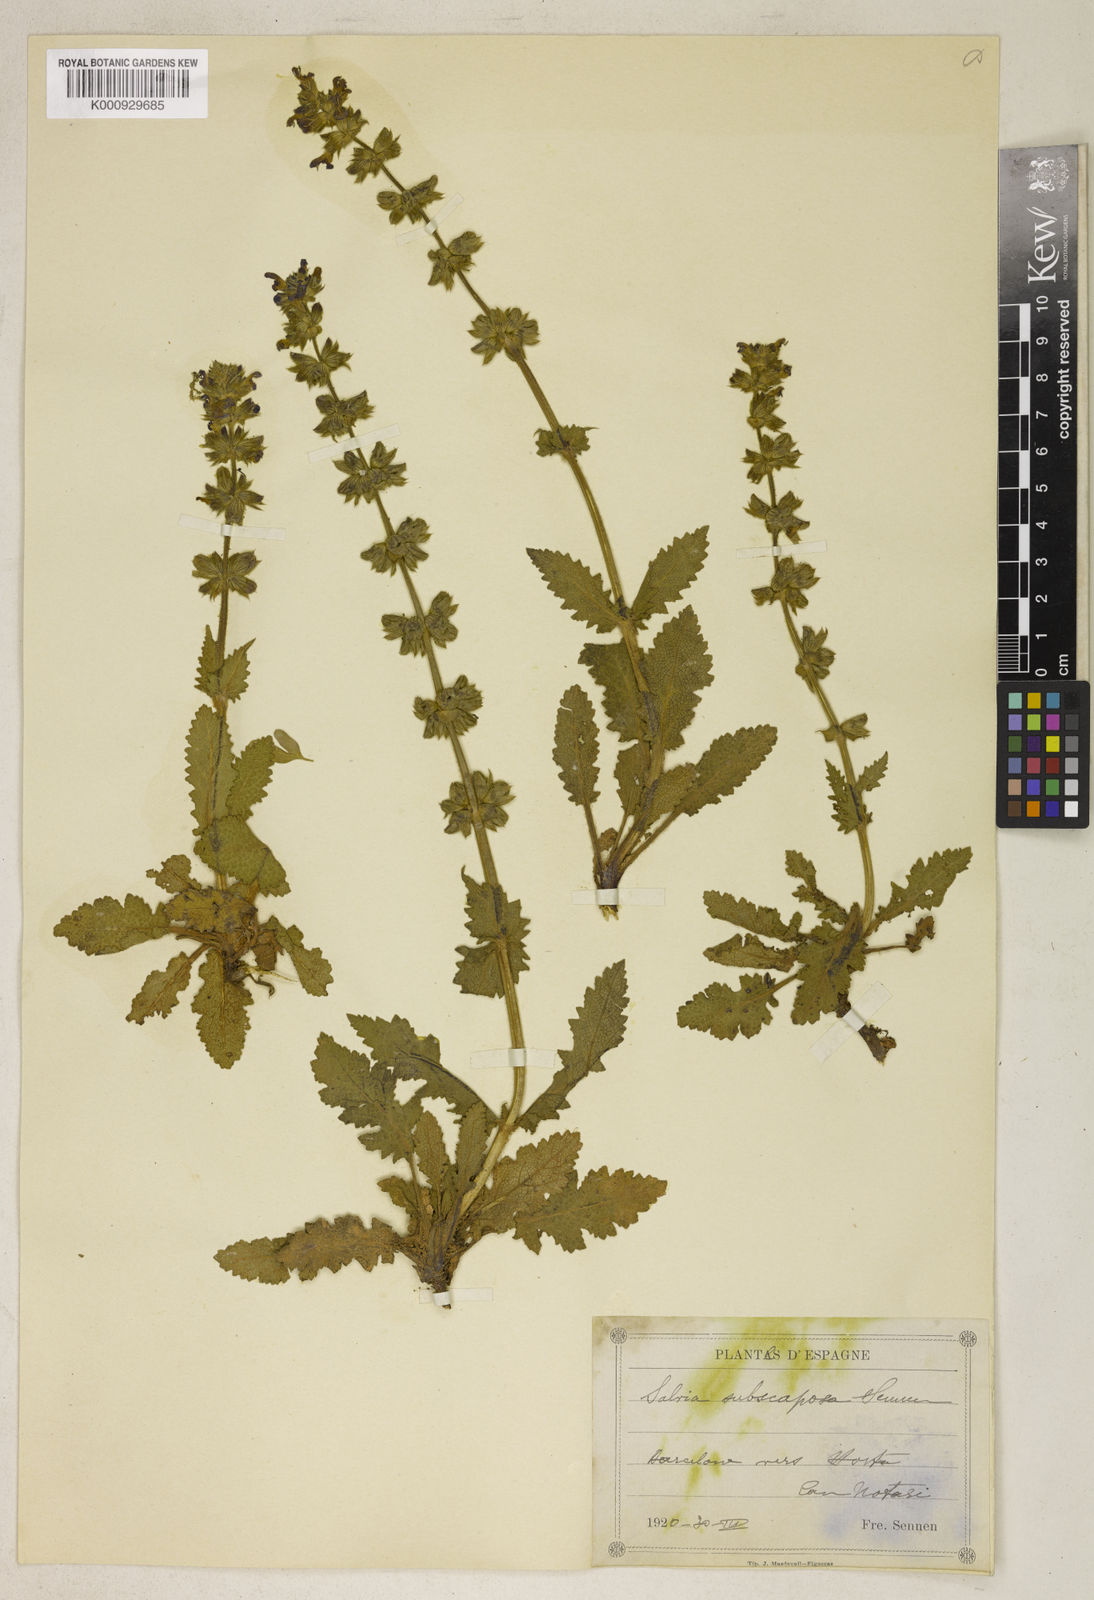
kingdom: Plantae
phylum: Tracheophyta
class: Magnoliopsida
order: Lamiales
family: Lamiaceae
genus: Salvia
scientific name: Salvia verbenaca
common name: Wild clary
